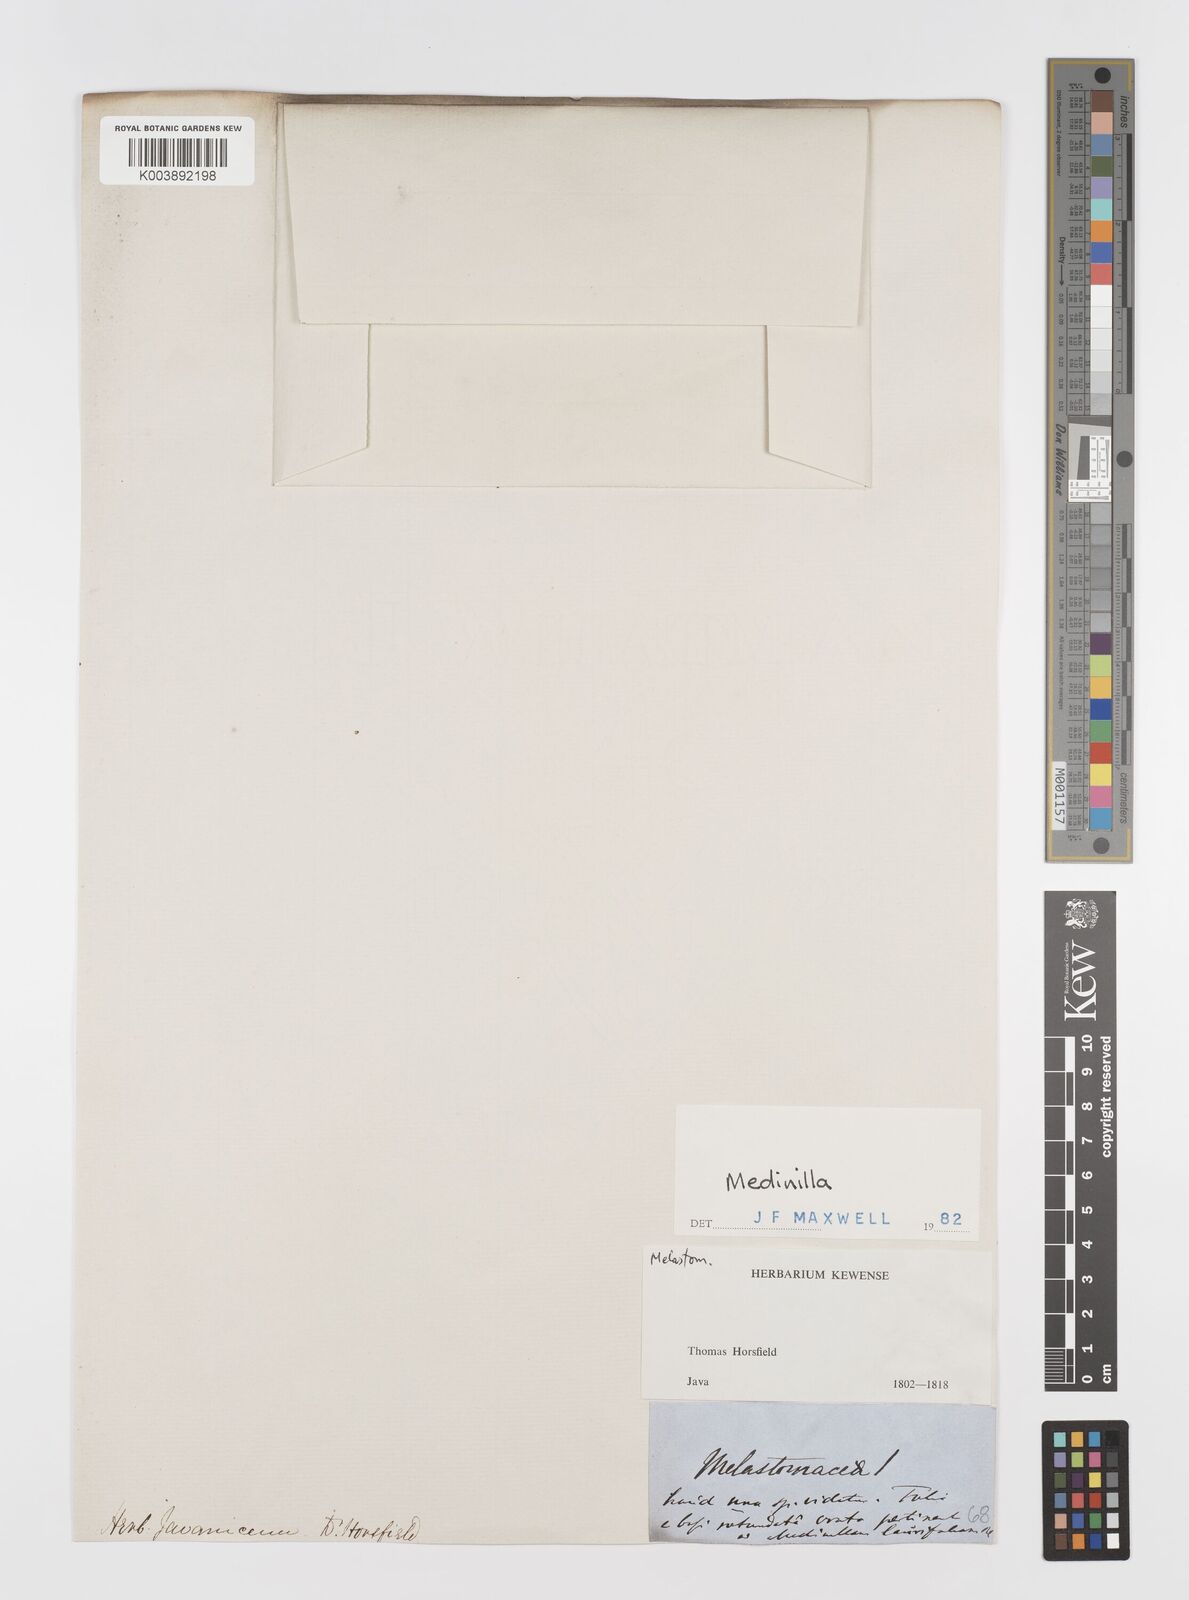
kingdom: Plantae
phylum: Tracheophyta
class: Magnoliopsida
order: Myrtales
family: Melastomataceae
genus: Medinilla
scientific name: Medinilla laurifolia
